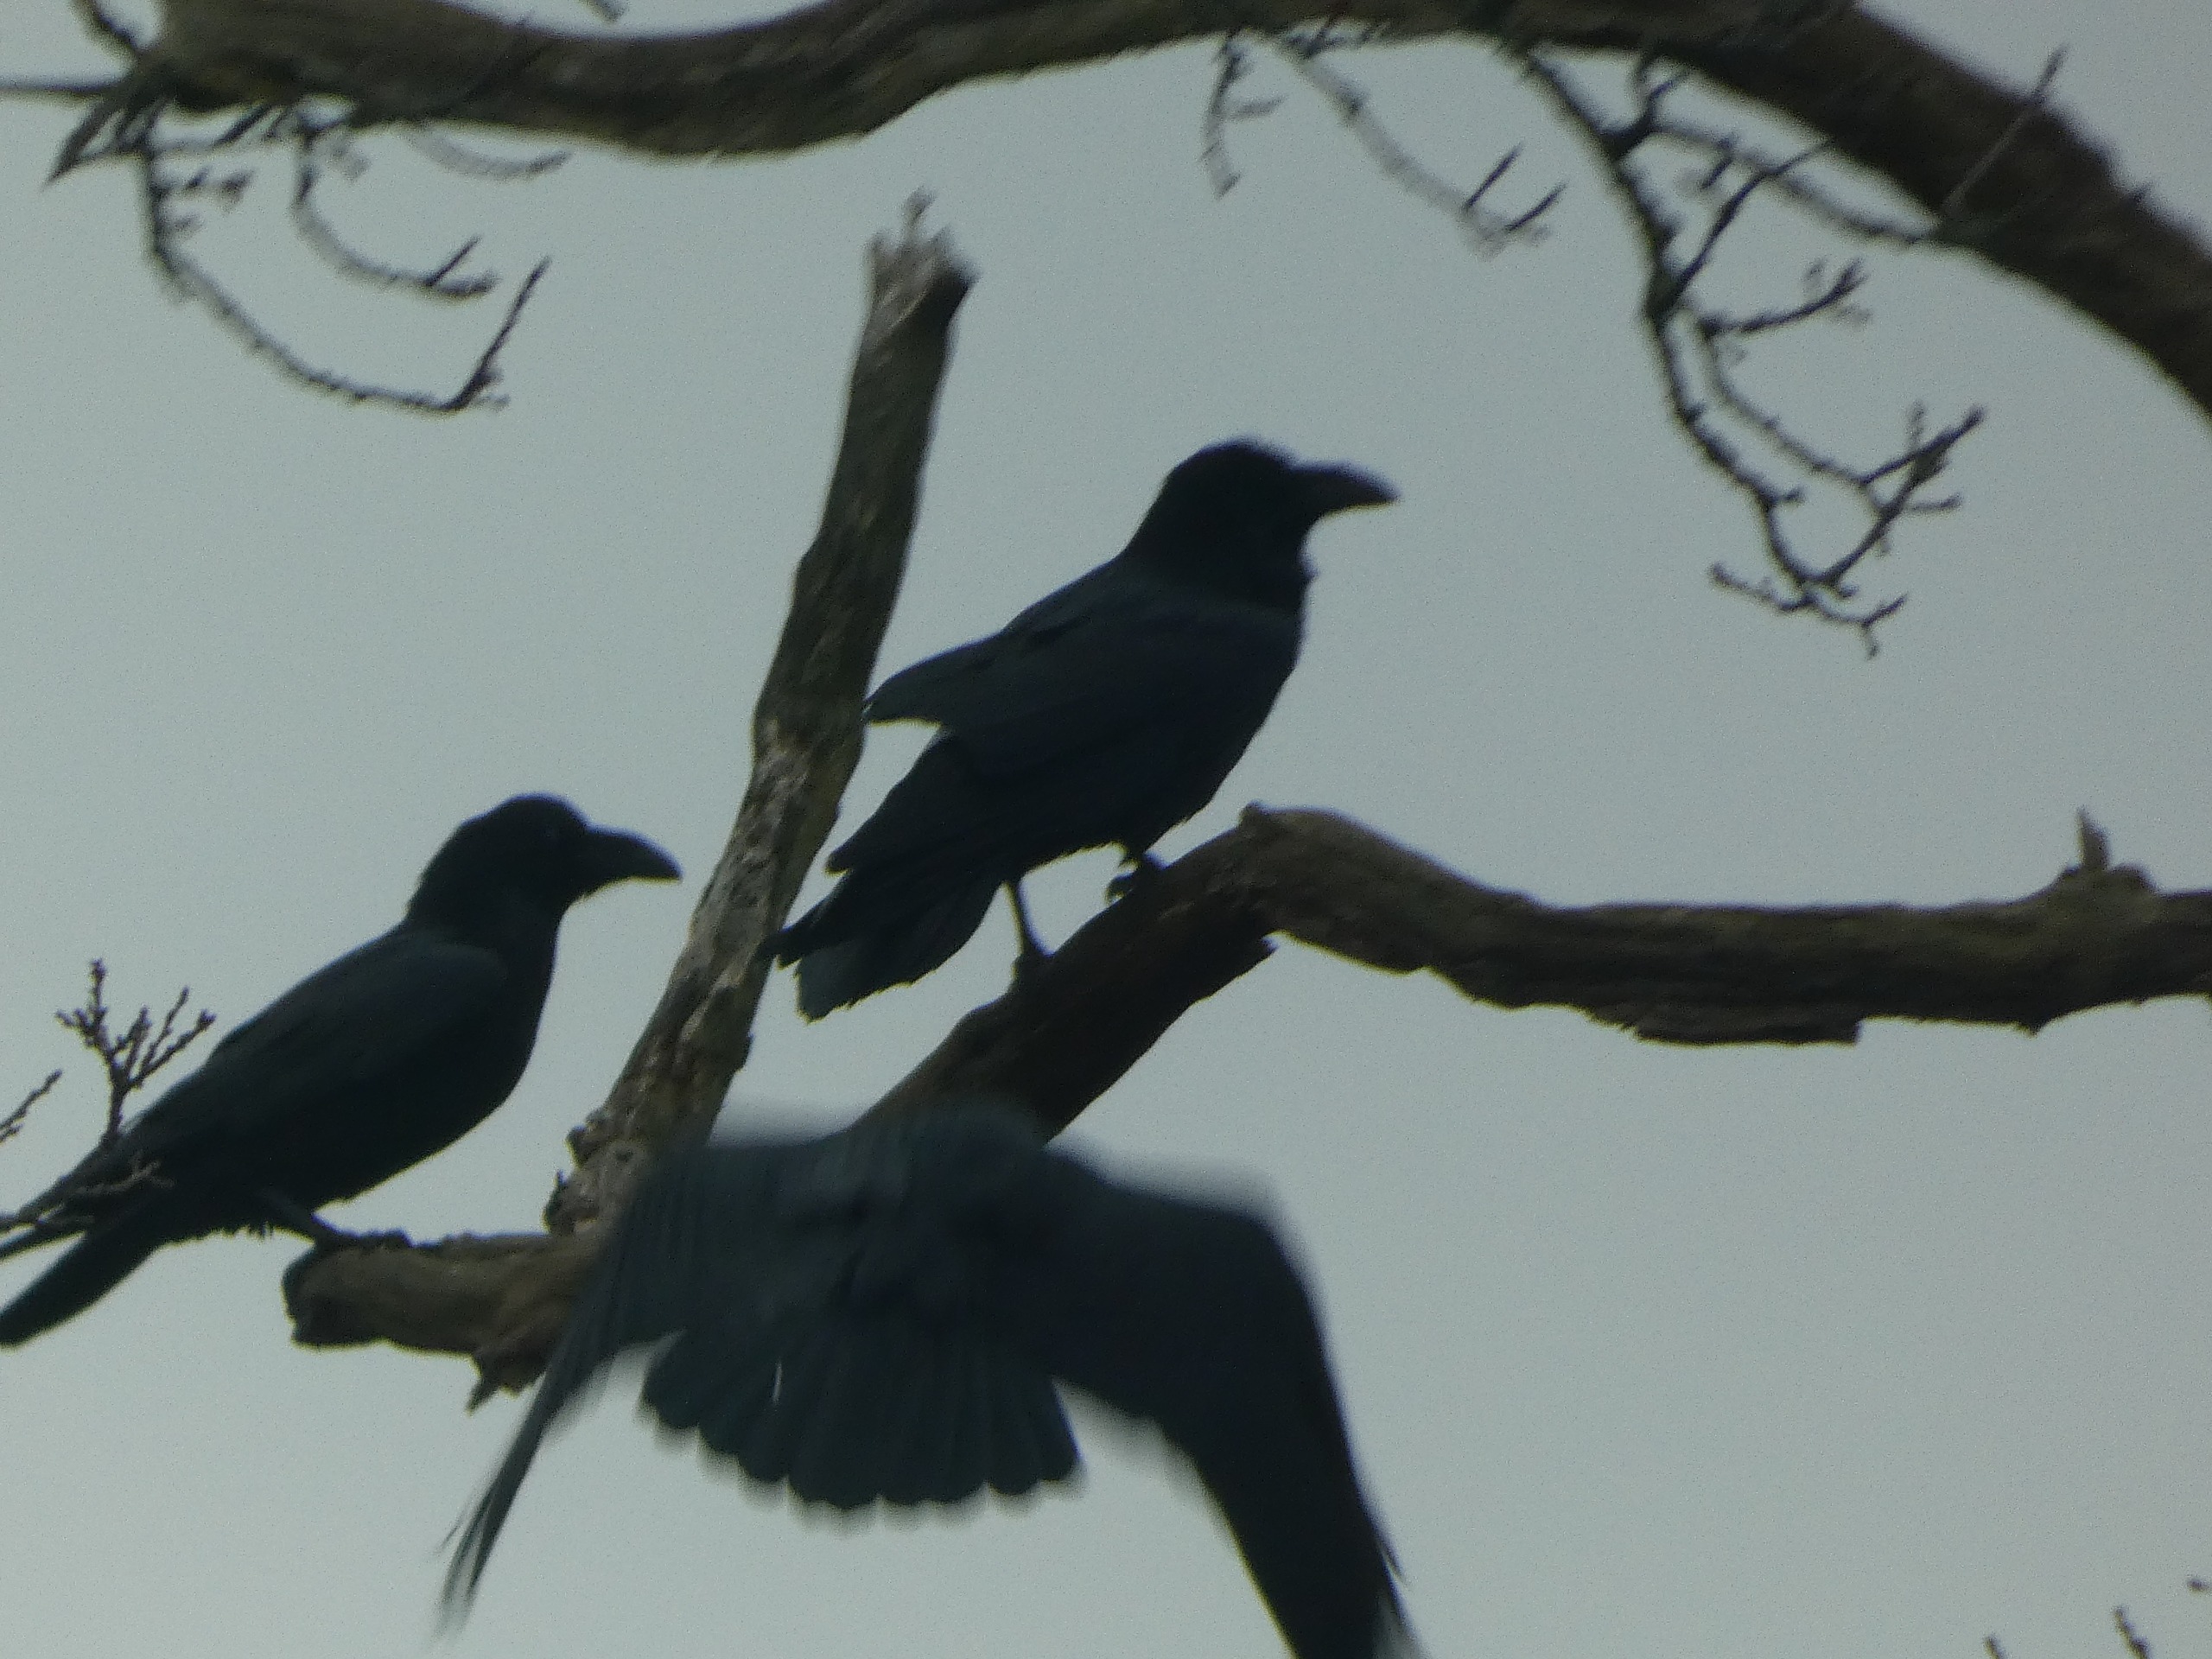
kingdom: Animalia
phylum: Chordata
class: Aves
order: Passeriformes
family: Corvidae
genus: Corvus
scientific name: Corvus corax
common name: Ravn
